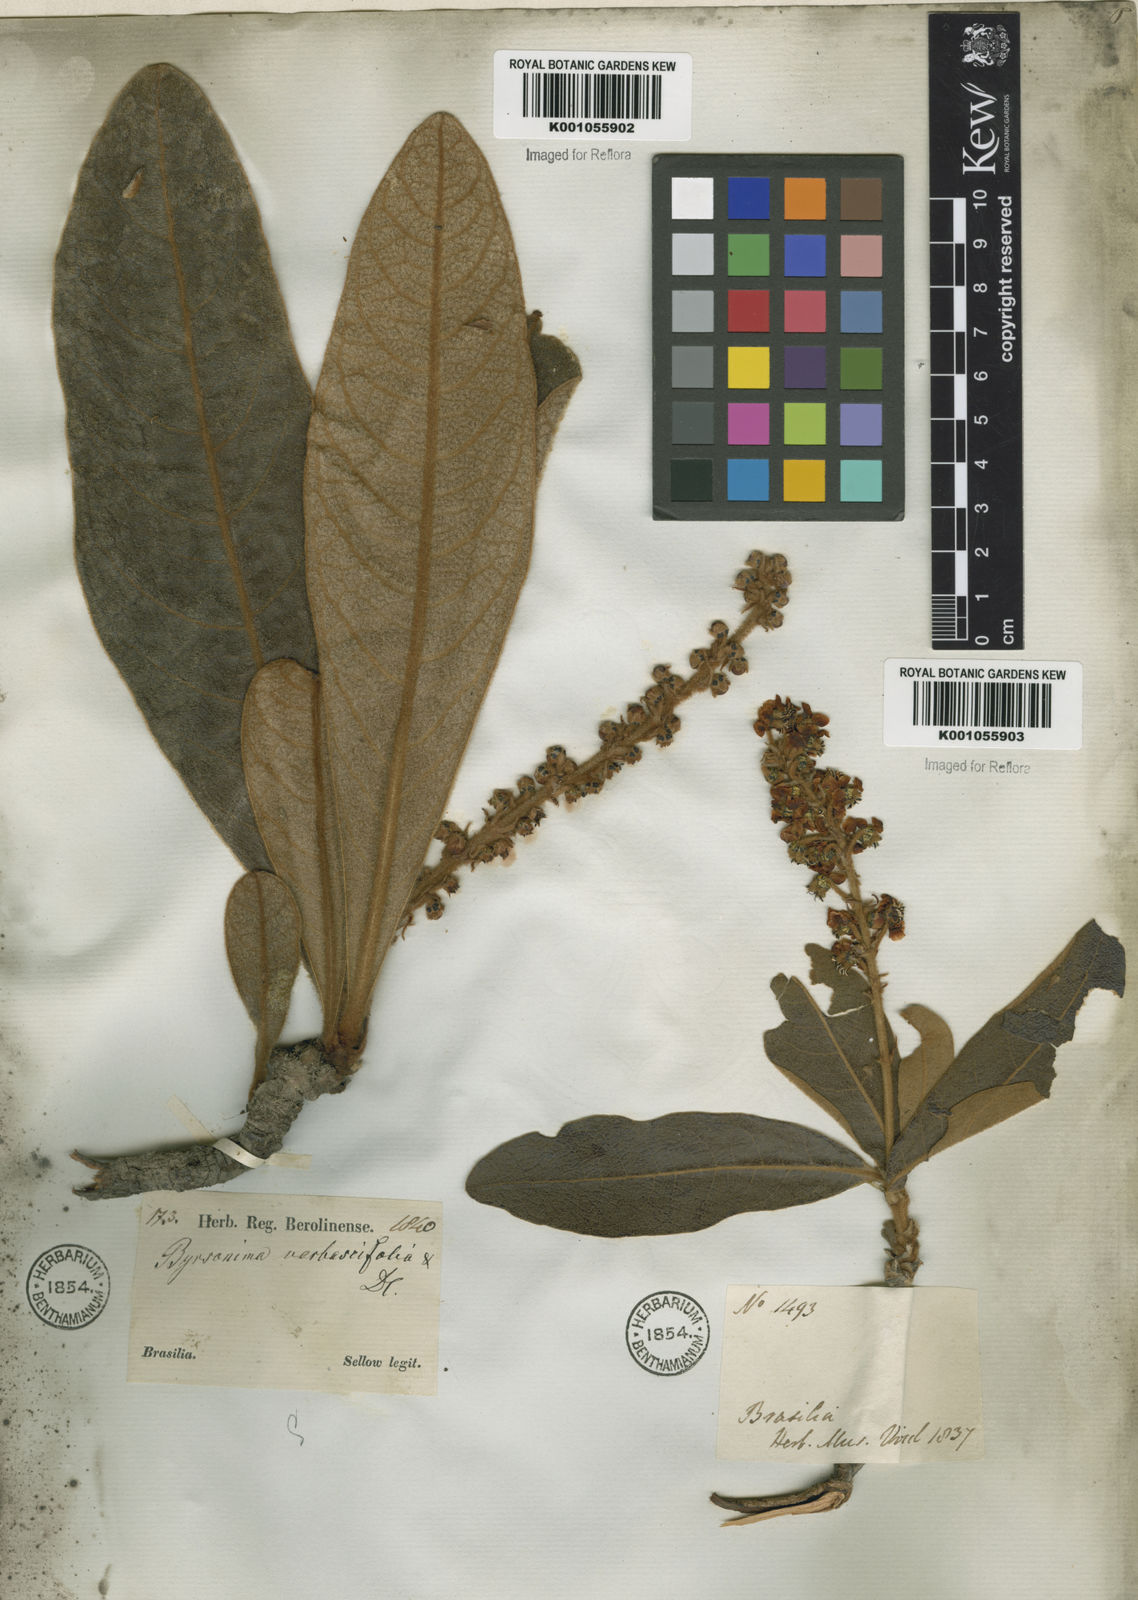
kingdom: Plantae
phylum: Tracheophyta
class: Magnoliopsida
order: Malpighiales
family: Malpighiaceae
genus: Byrsonima
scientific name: Byrsonima verbascifolia
